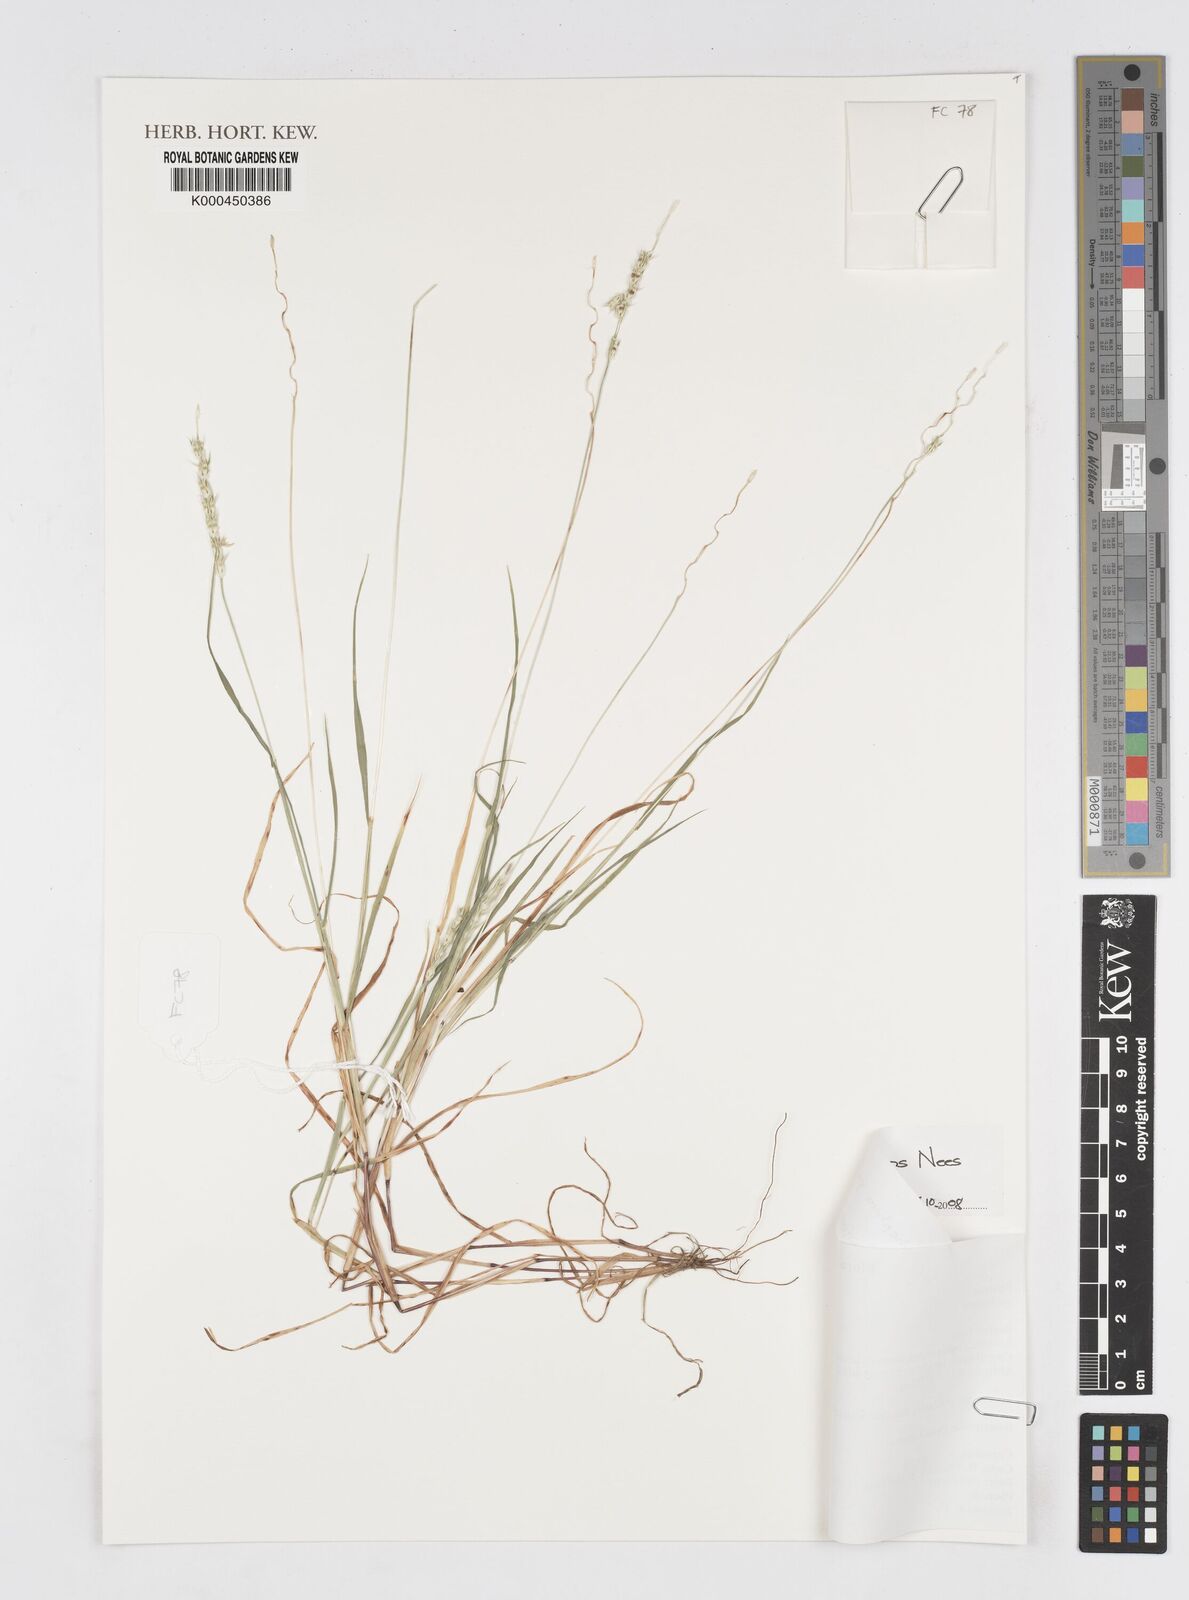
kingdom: Plantae
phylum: Tracheophyta
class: Liliopsida
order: Poales
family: Poaceae
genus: Anthephora
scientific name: Anthephora pubescens
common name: Wool grass
